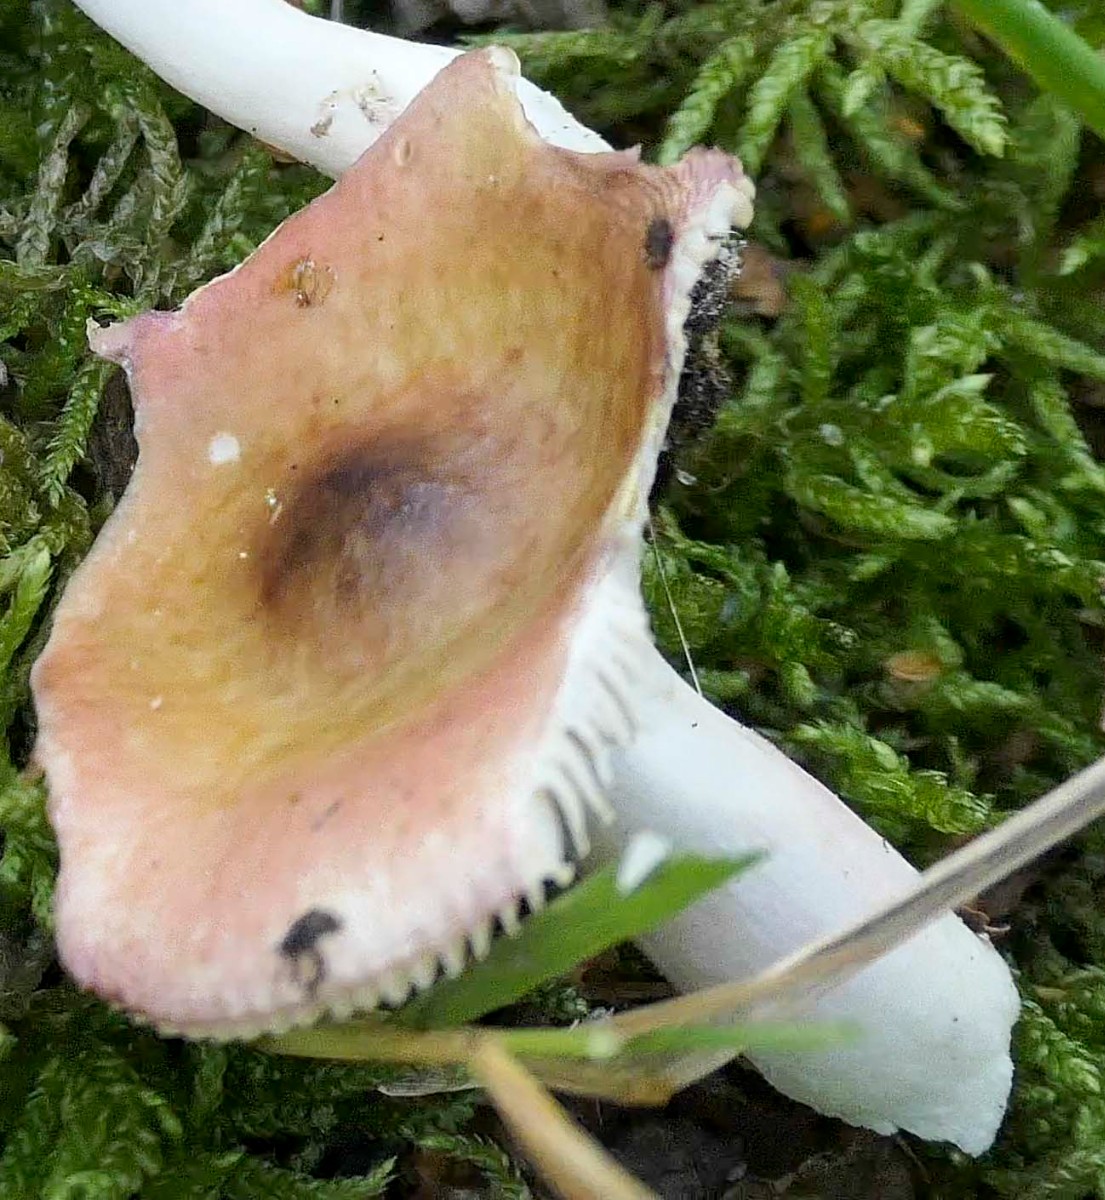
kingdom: Fungi
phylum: Basidiomycota
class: Agaricomycetes
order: Russulales
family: Russulaceae
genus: Russula
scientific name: Russula versicolor
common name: foranderlig skørhat
